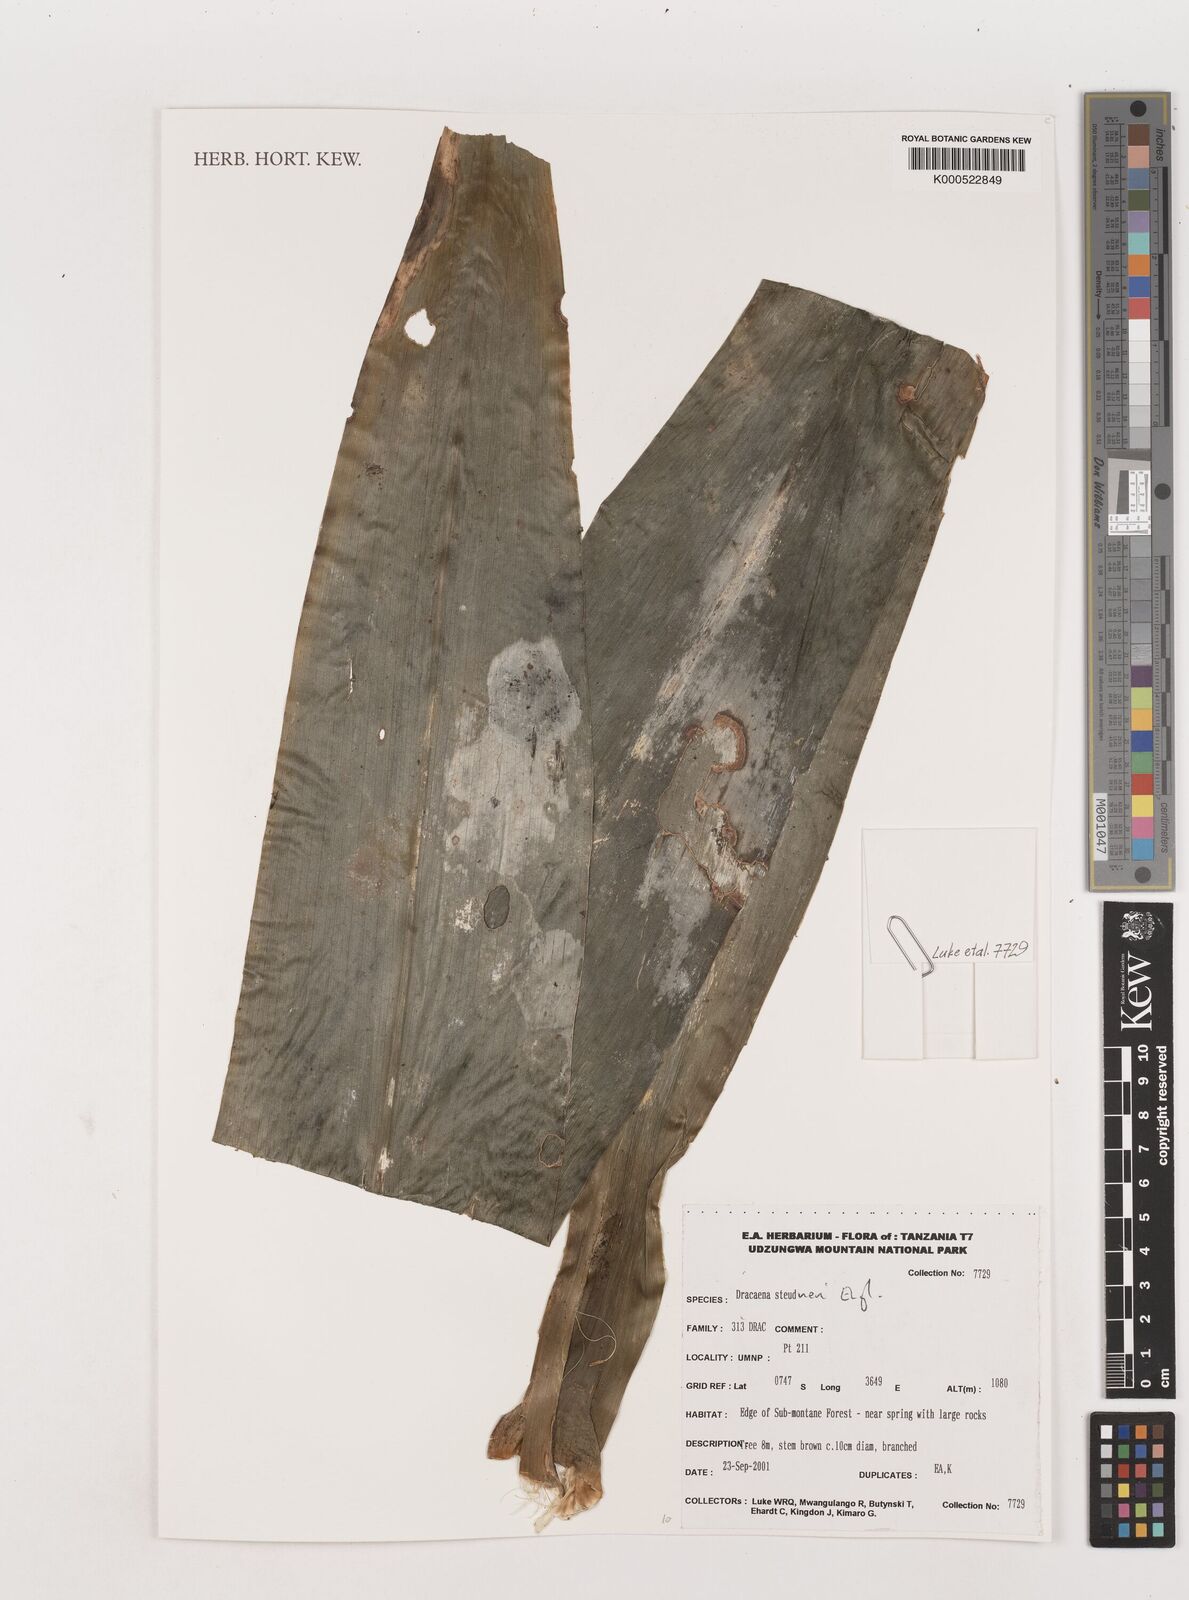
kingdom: Plantae
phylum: Tracheophyta
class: Liliopsida
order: Asparagales
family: Asparagaceae
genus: Dracaena
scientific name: Dracaena steudneri
